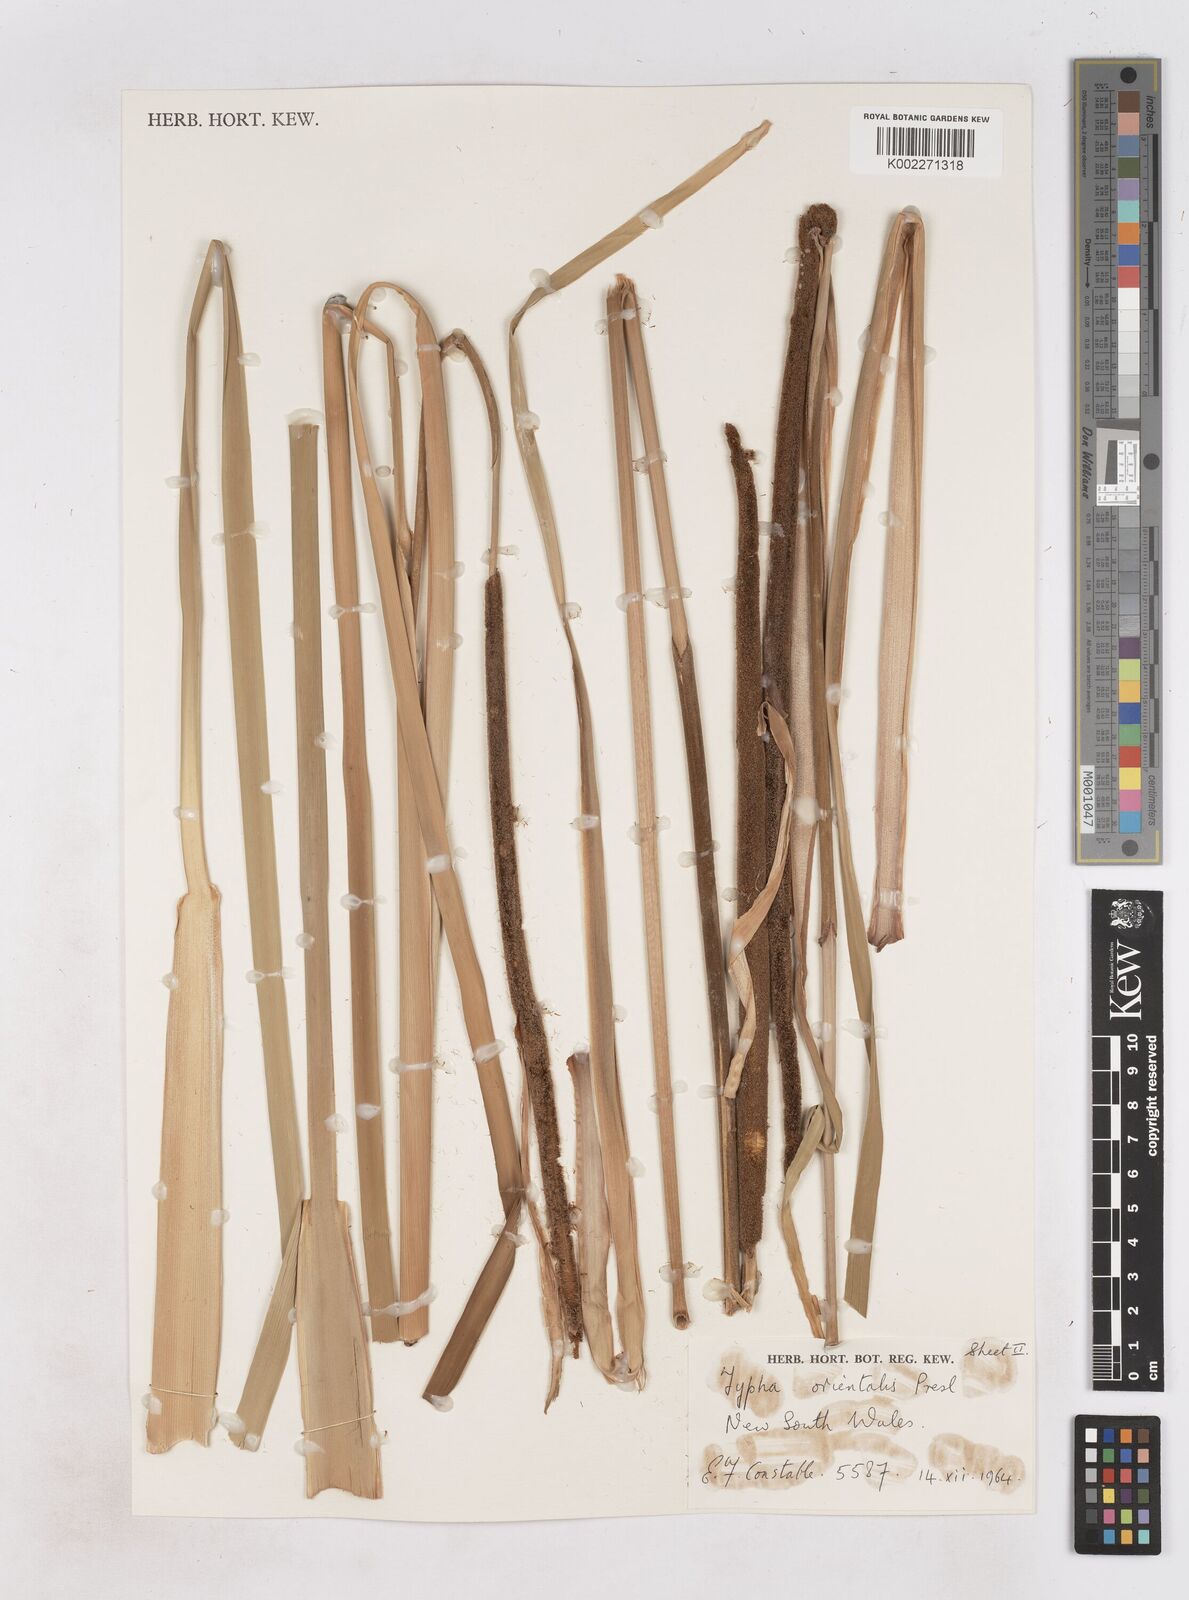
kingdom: Plantae
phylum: Tracheophyta
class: Liliopsida
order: Poales
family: Typhaceae
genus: Typha
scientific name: Typha orientalis
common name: Bullrush
